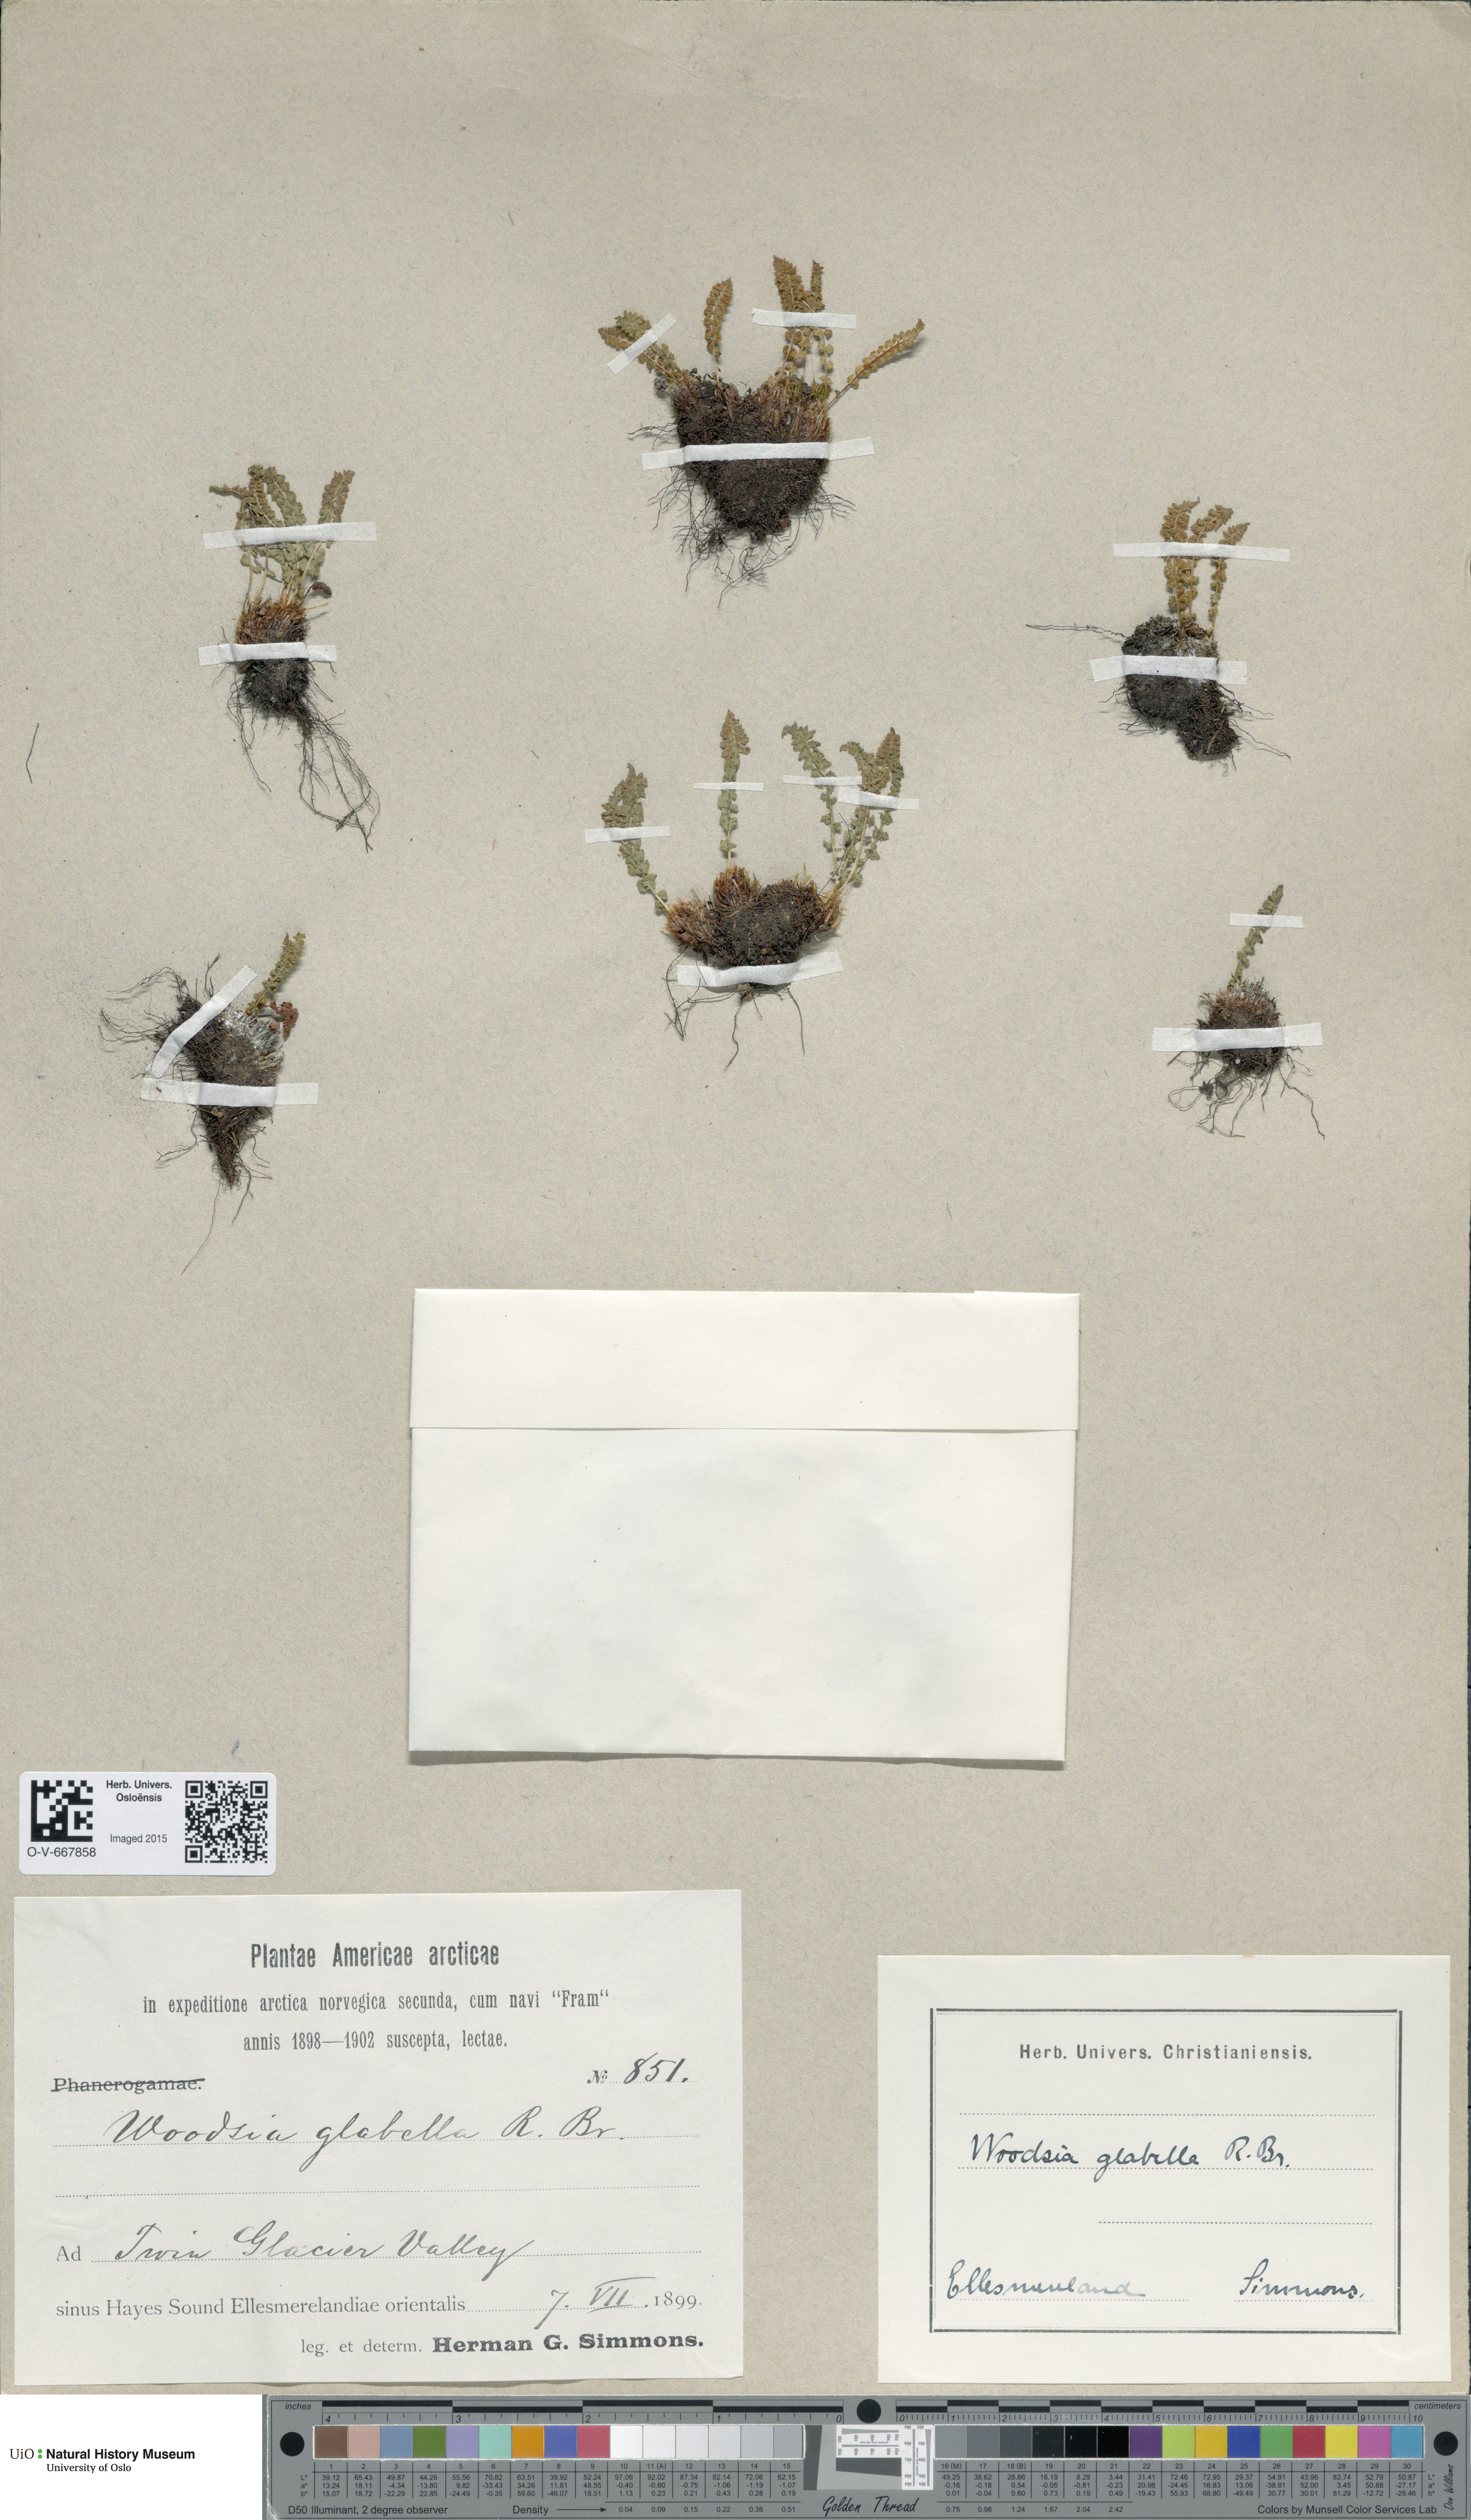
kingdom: Plantae
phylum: Tracheophyta
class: Polypodiopsida
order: Polypodiales
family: Woodsiaceae
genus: Woodsia
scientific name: Woodsia glabella
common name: Smooth woodsia
